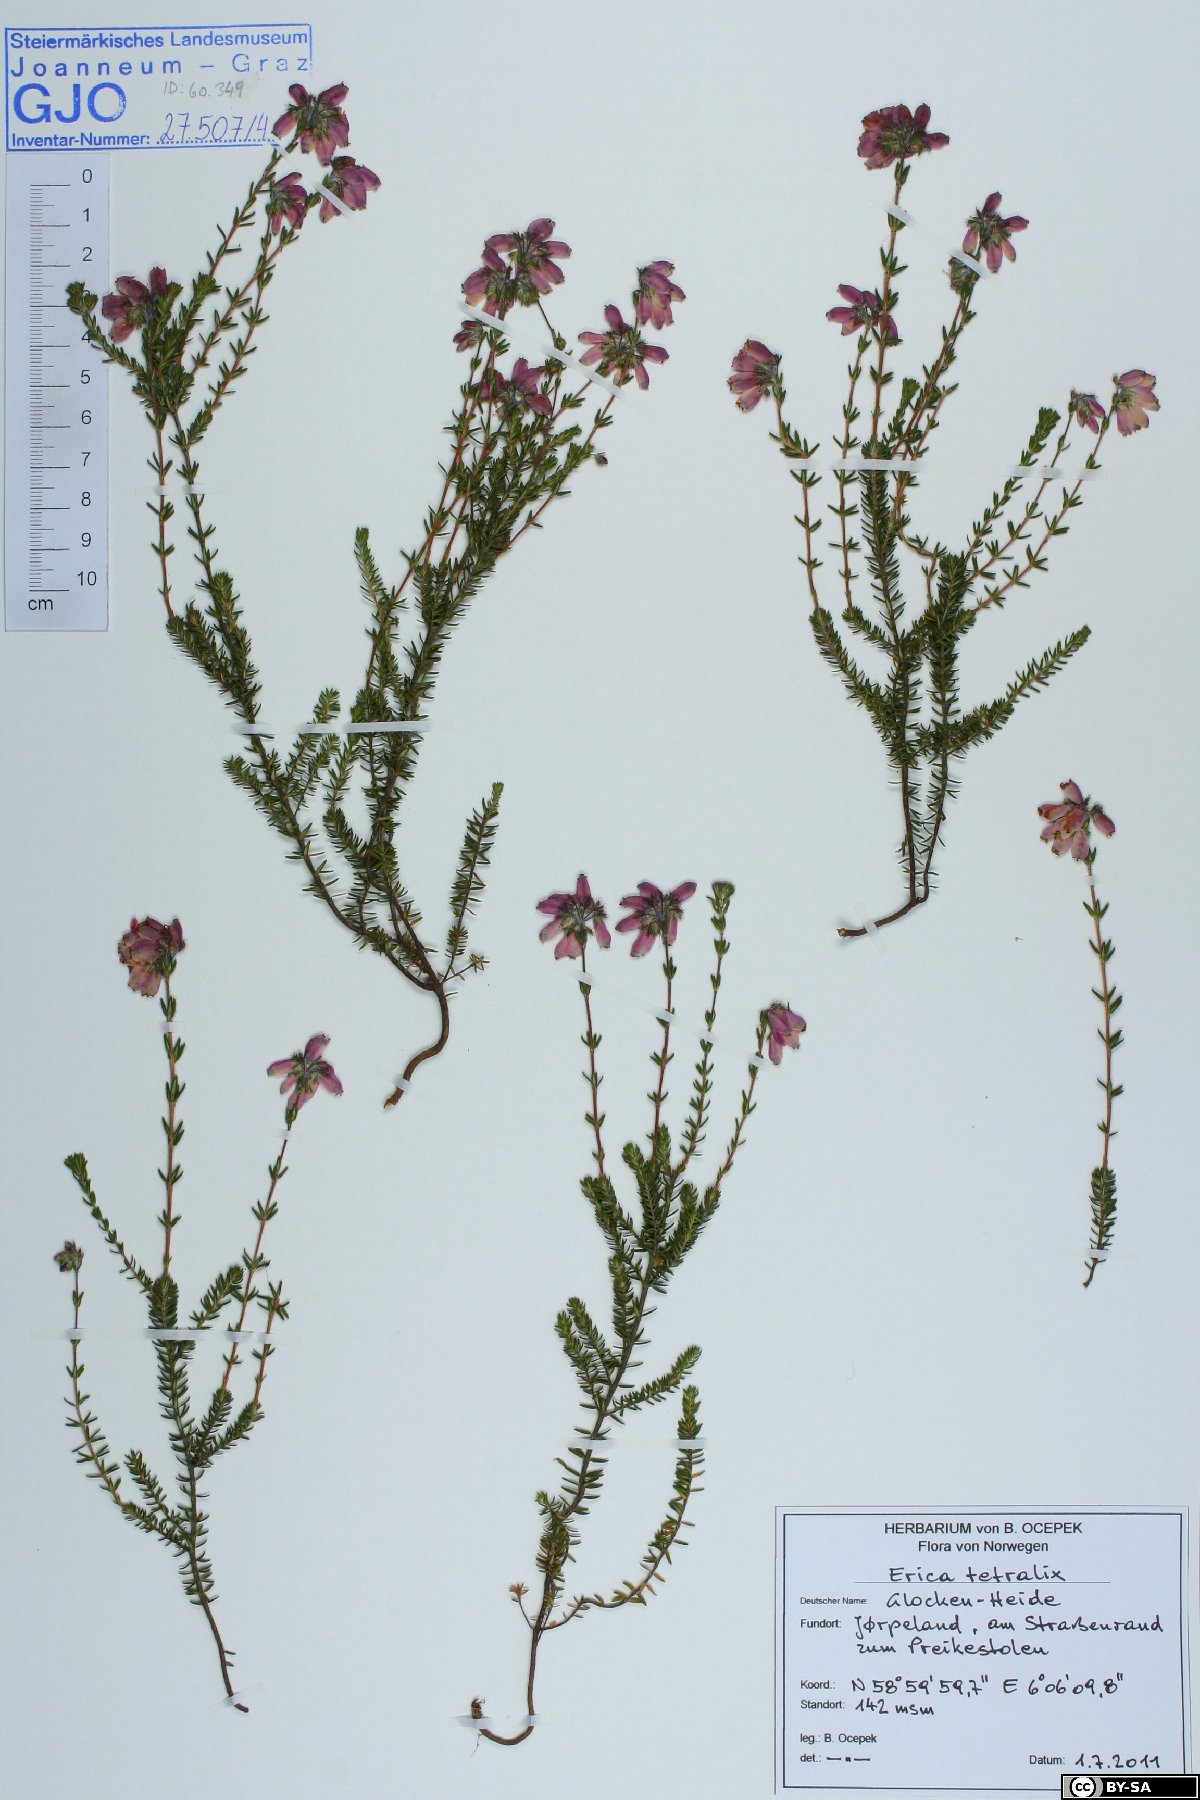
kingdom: Plantae
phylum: Tracheophyta
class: Magnoliopsida
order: Ericales
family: Ericaceae
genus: Erica
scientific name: Erica tetralix
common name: Cross-leaved heath
